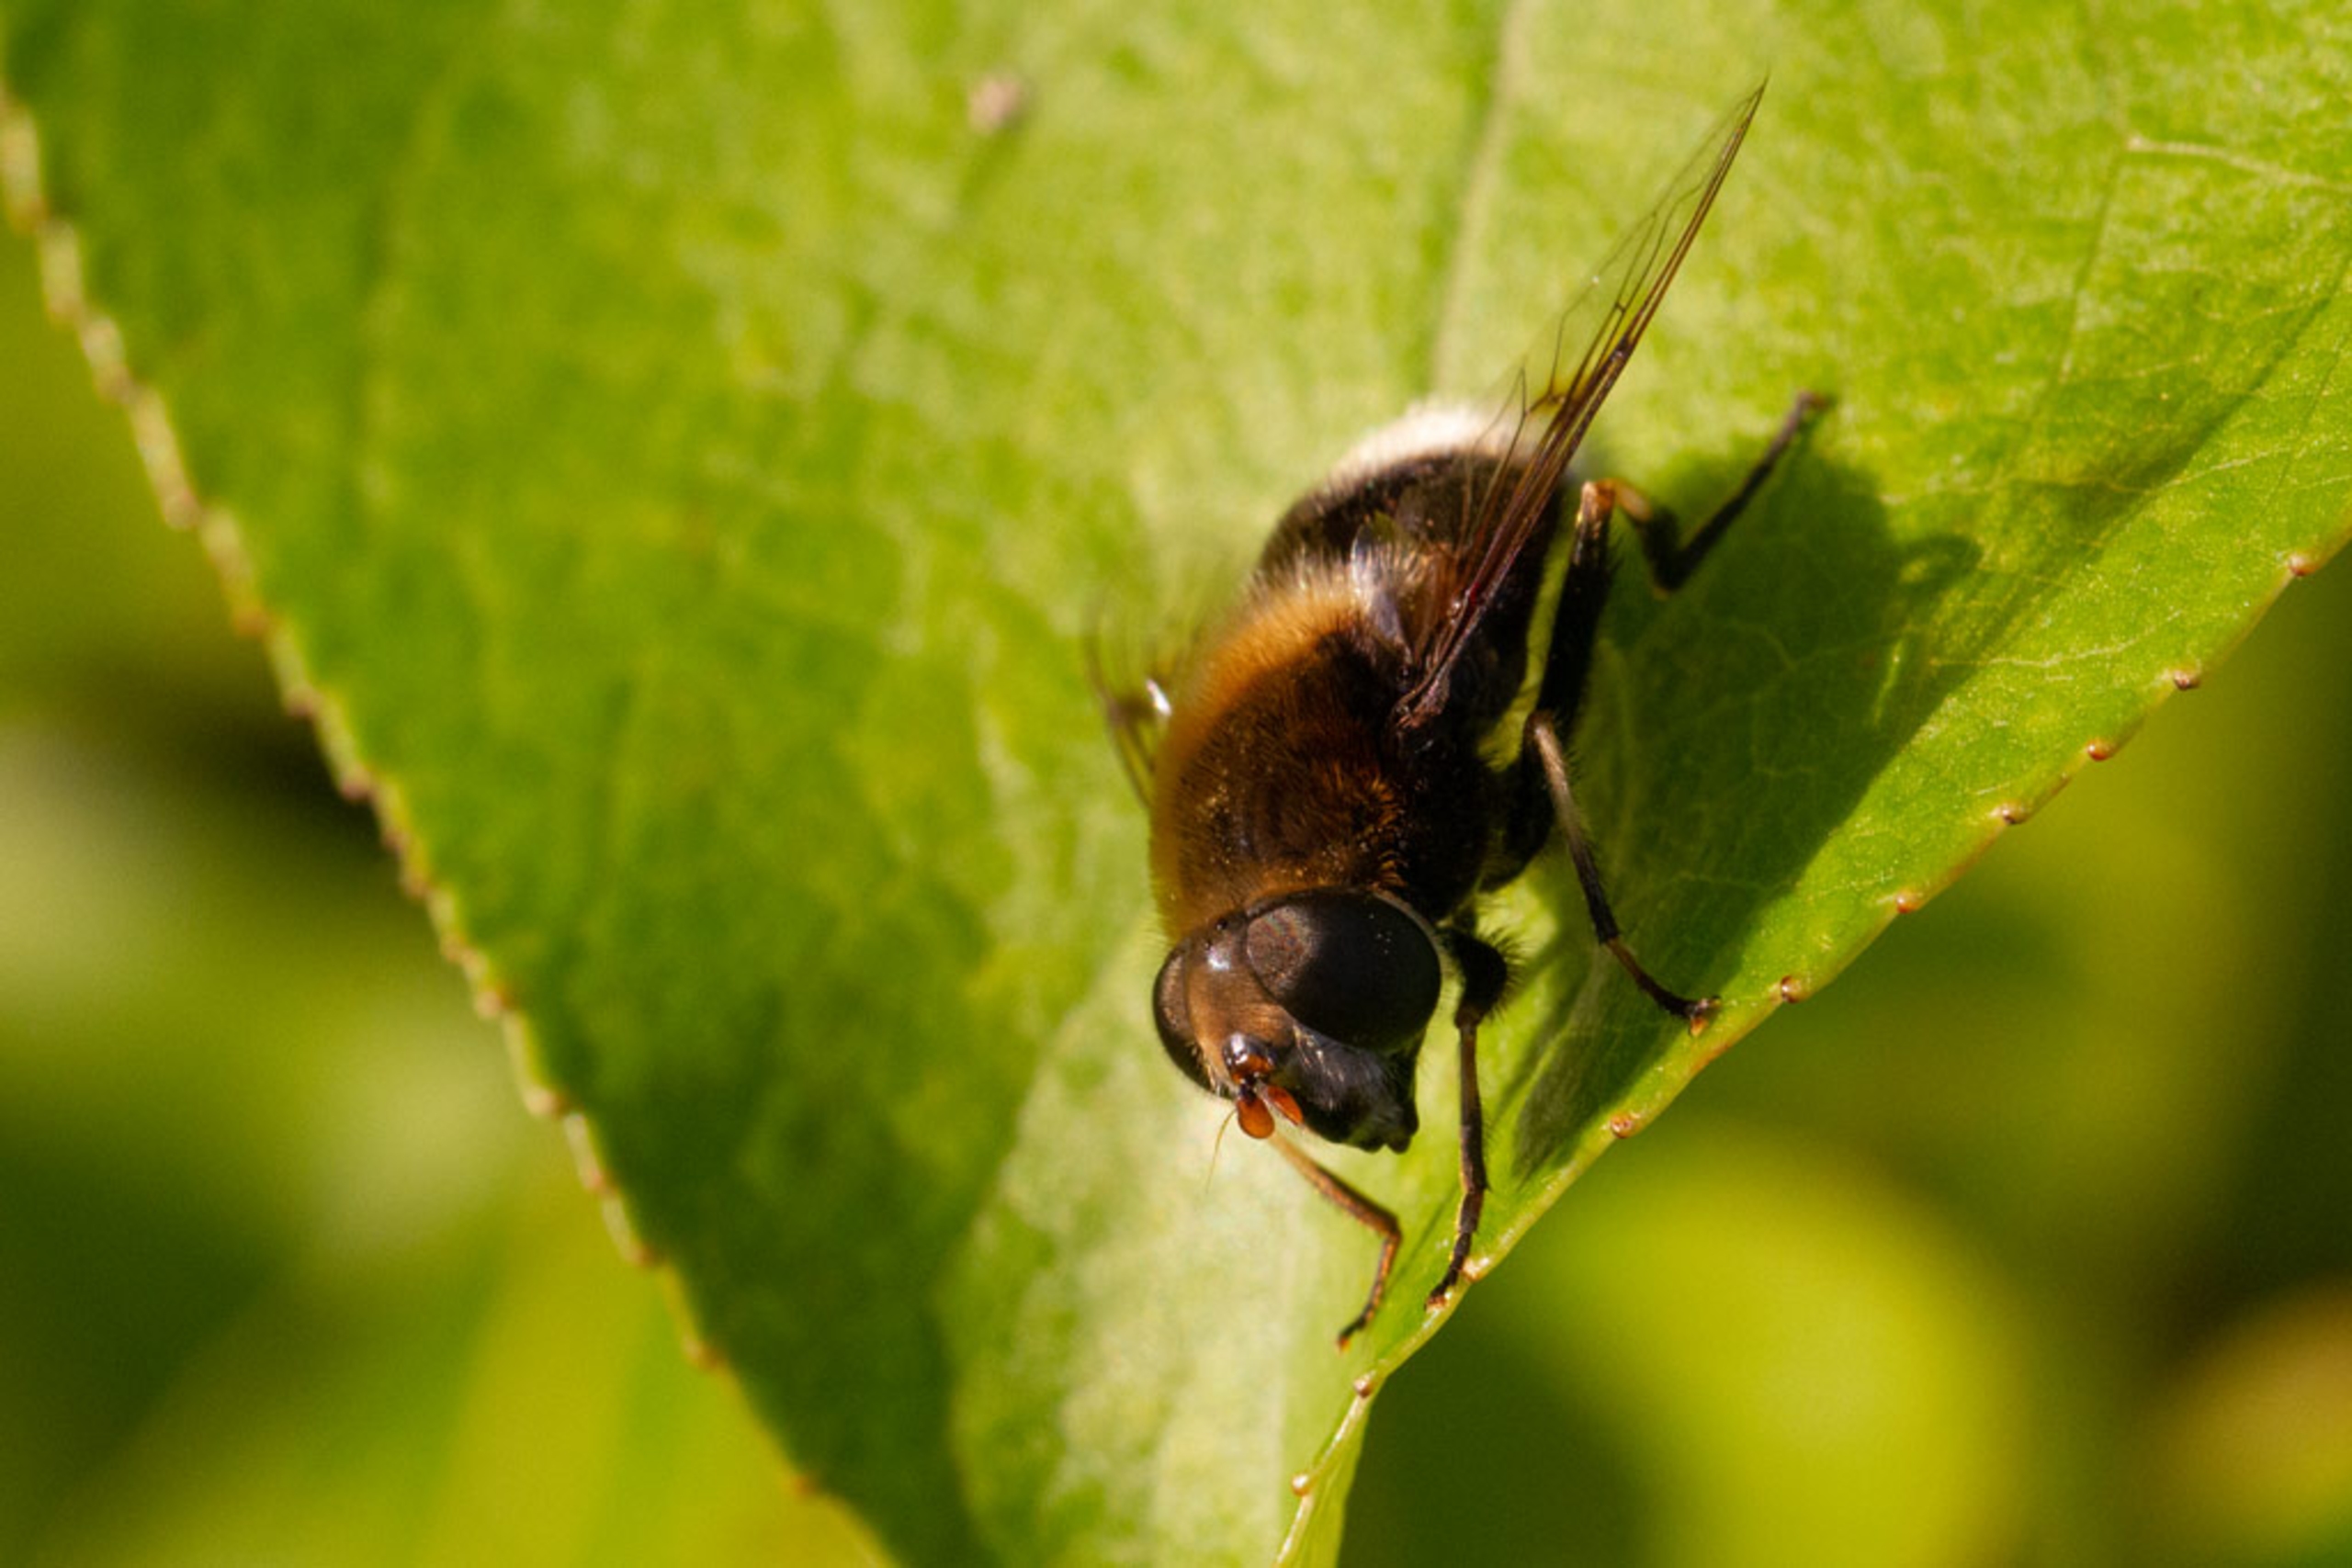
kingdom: Animalia
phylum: Arthropoda
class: Insecta
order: Diptera
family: Syrphidae
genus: Eristalis
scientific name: Eristalis intricaria
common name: Håret dyndflue
